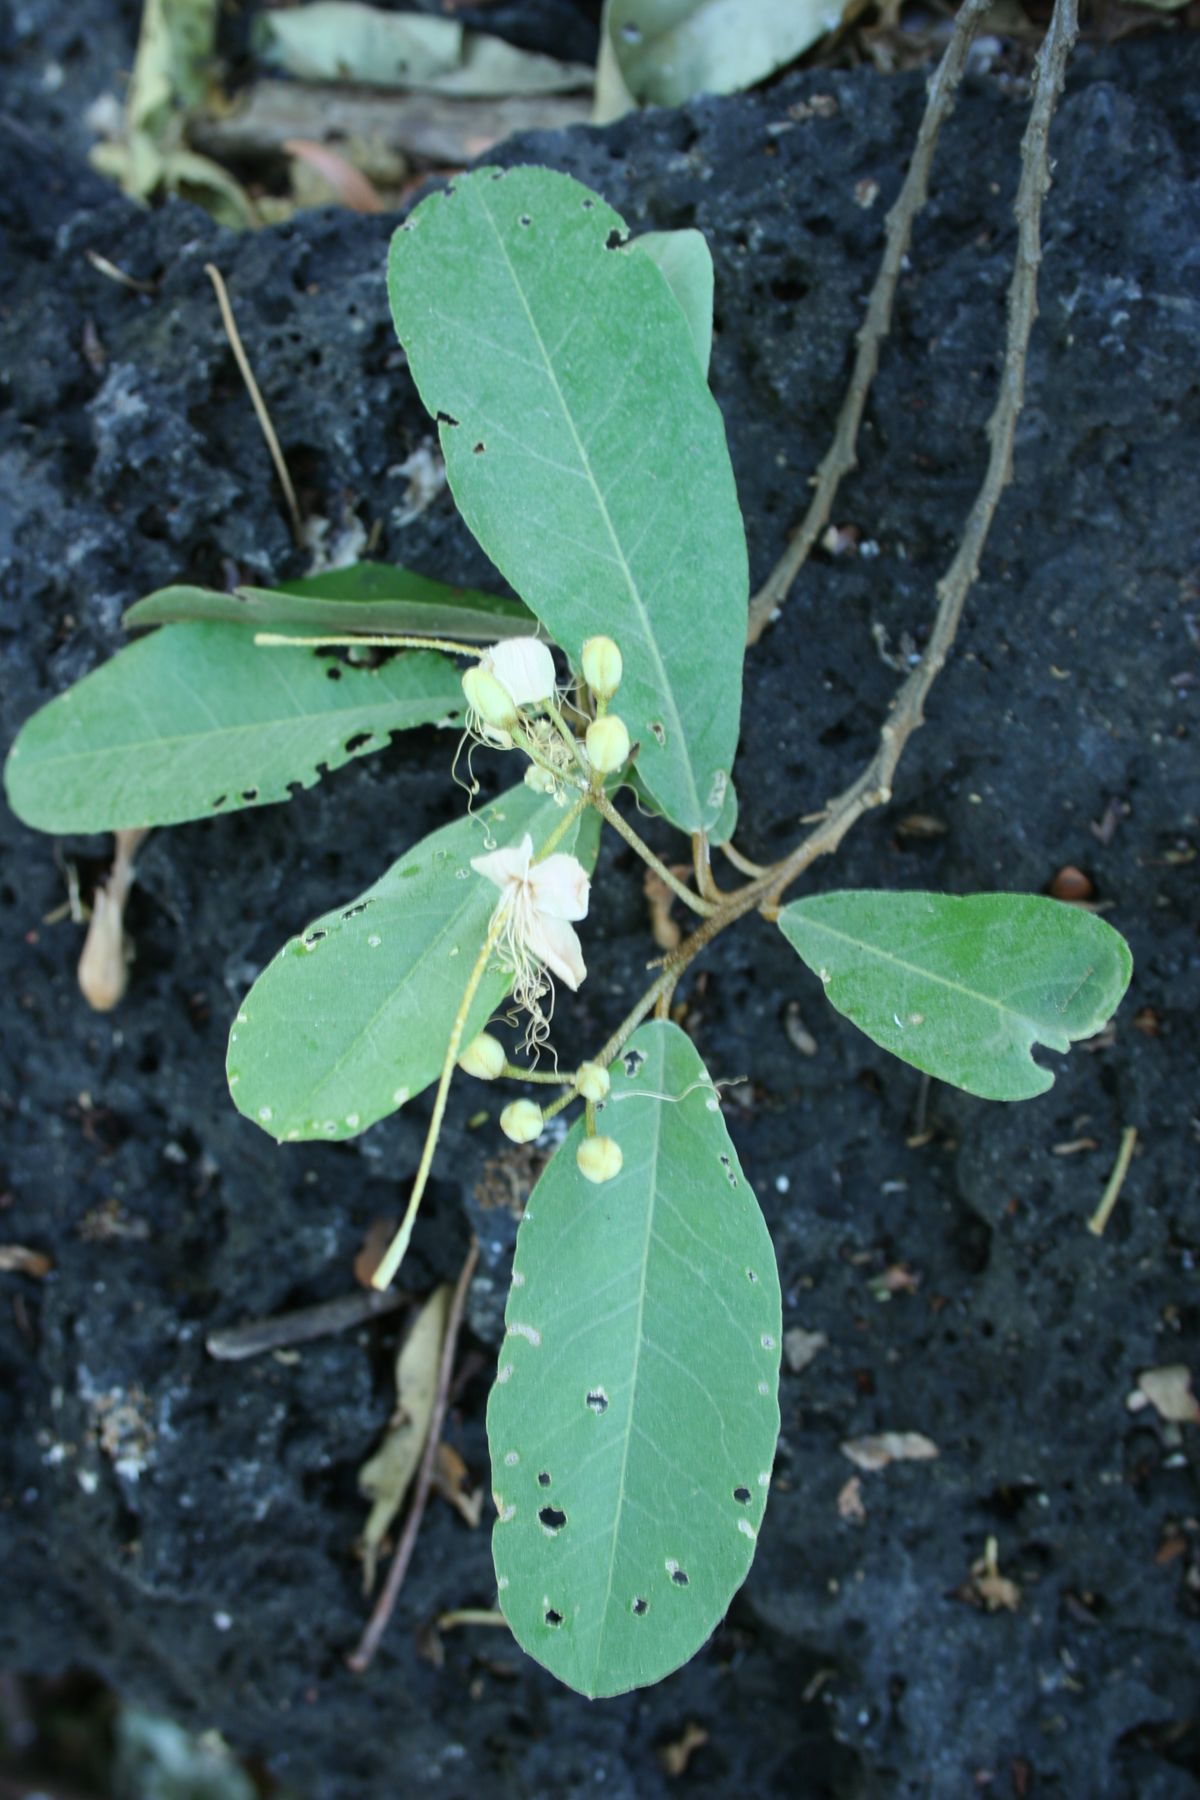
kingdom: Plantae
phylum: Tracheophyta
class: Magnoliopsida
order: Brassicales
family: Capparaceae
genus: Quadrella
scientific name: Quadrella indica
